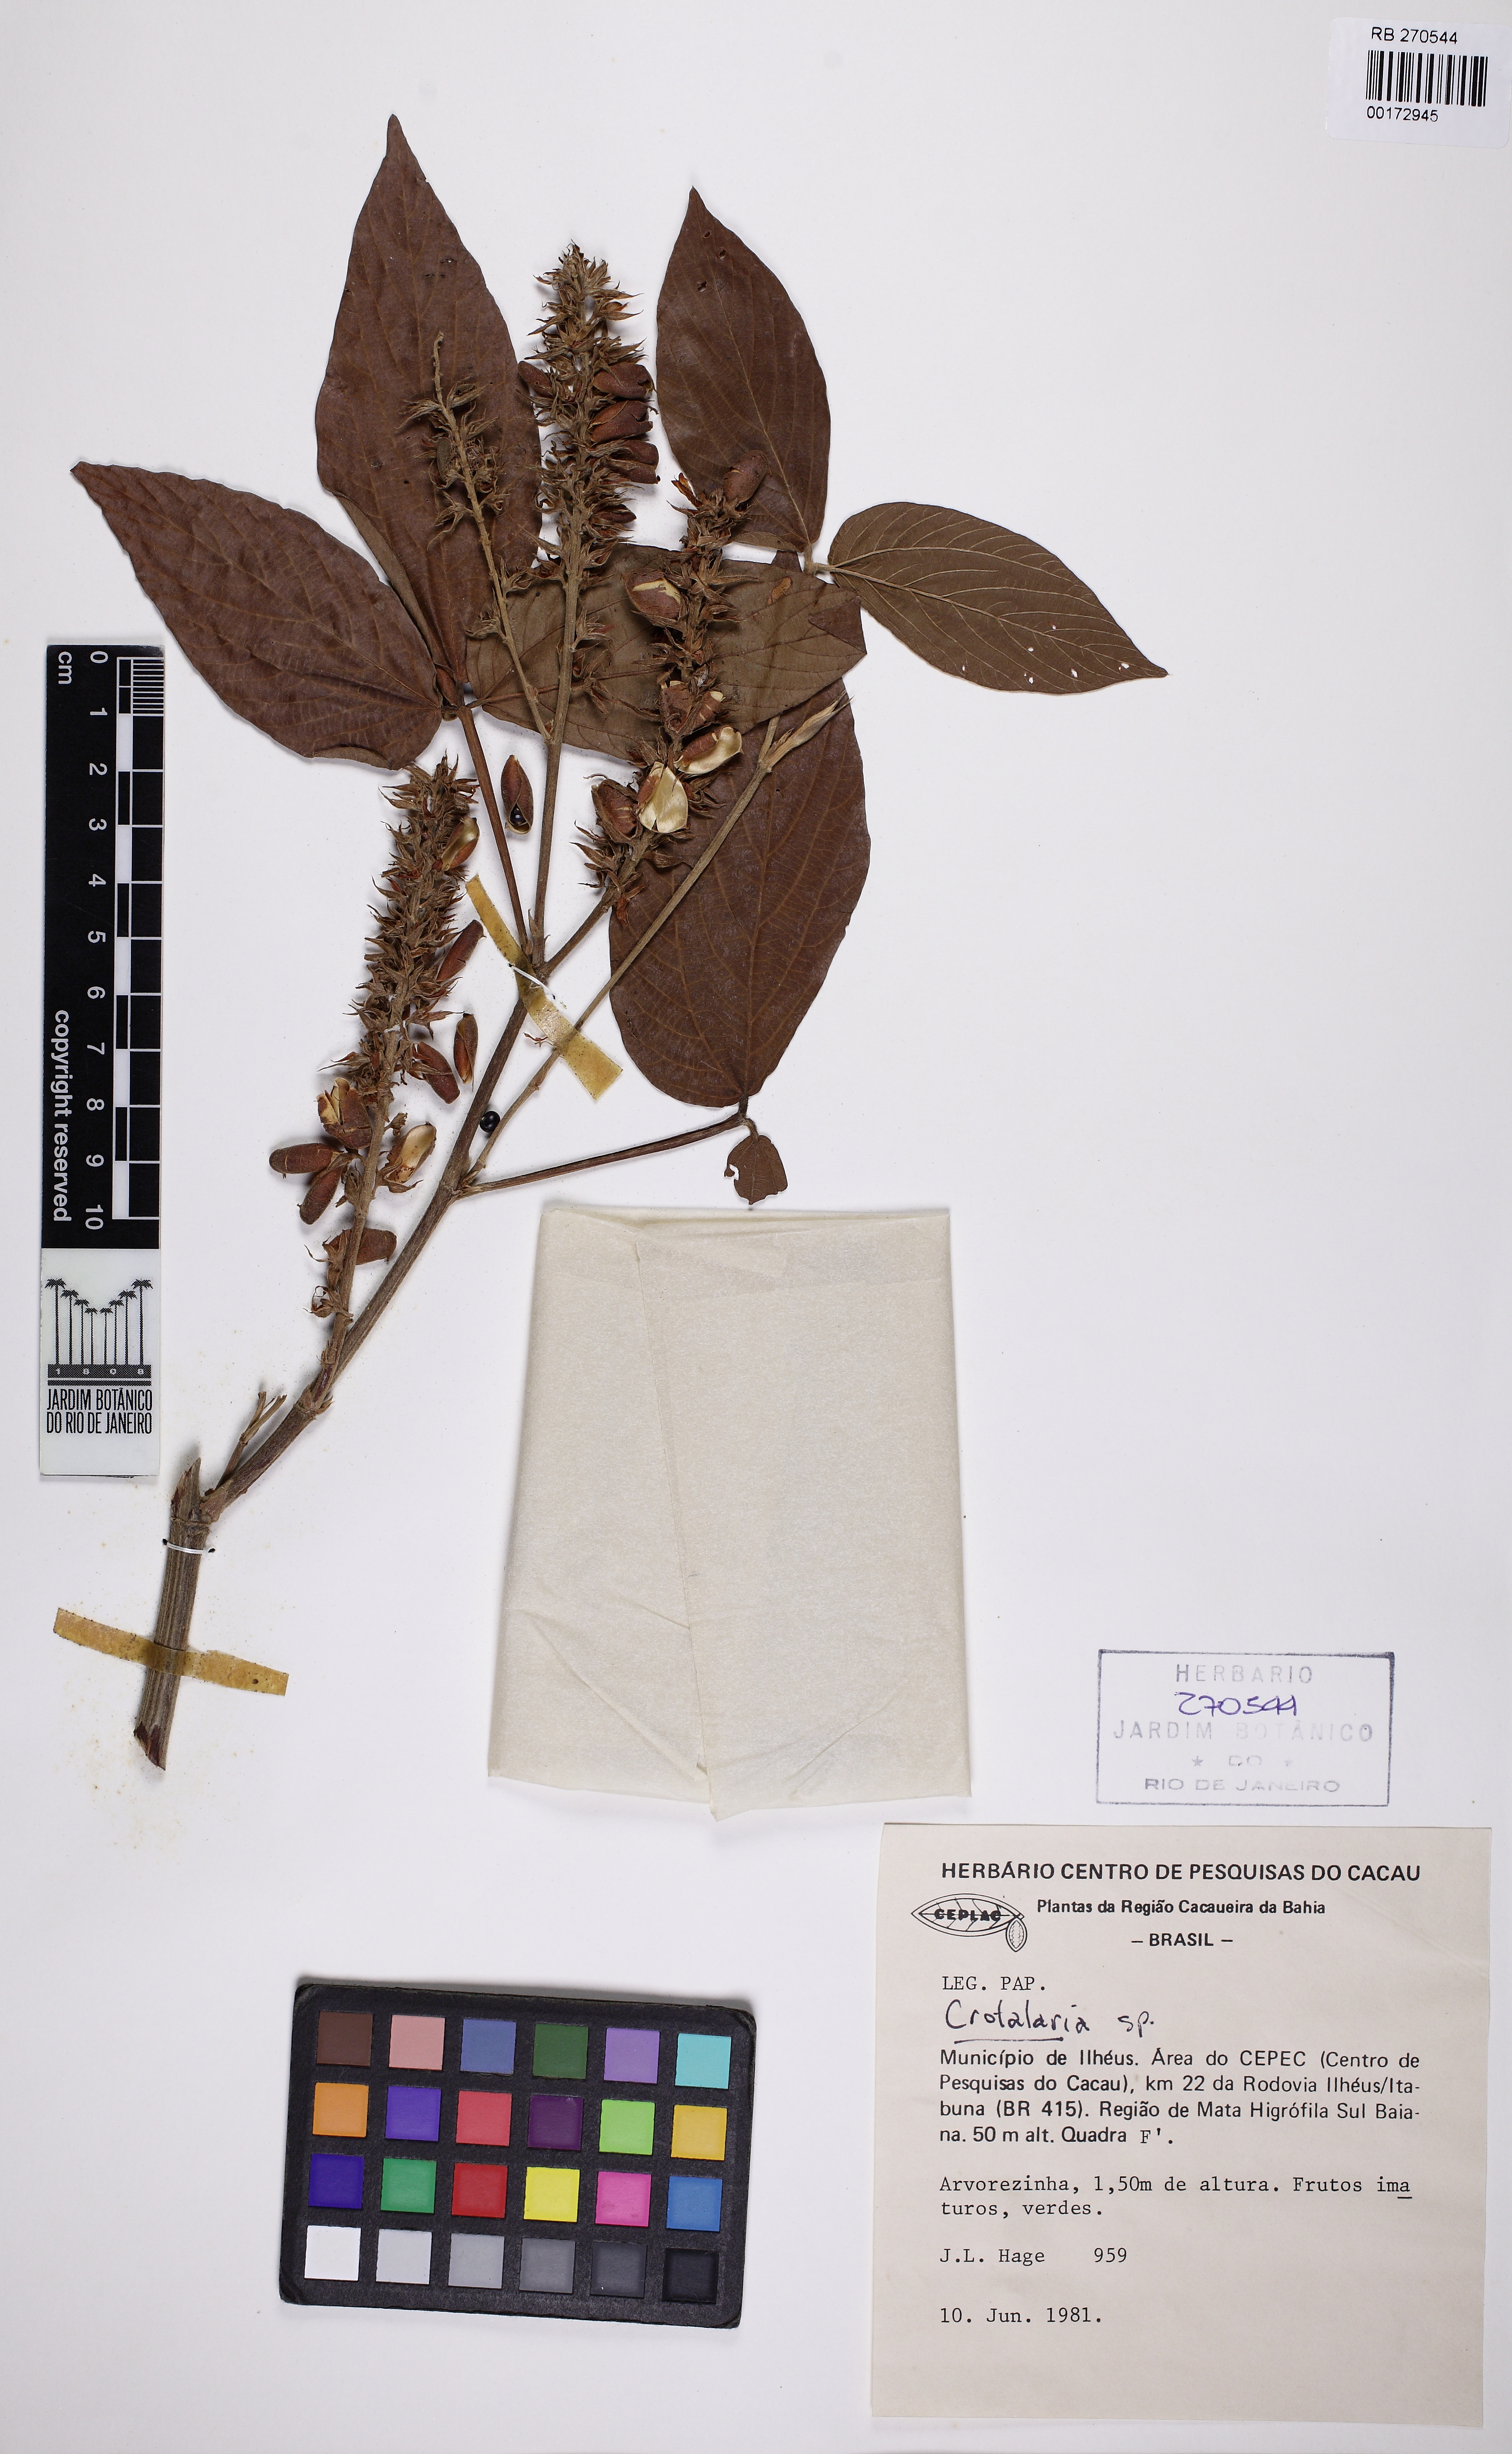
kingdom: Plantae
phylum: Tracheophyta
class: Magnoliopsida
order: Fabales
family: Fabaceae
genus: Crotalaria
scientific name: Crotalaria
